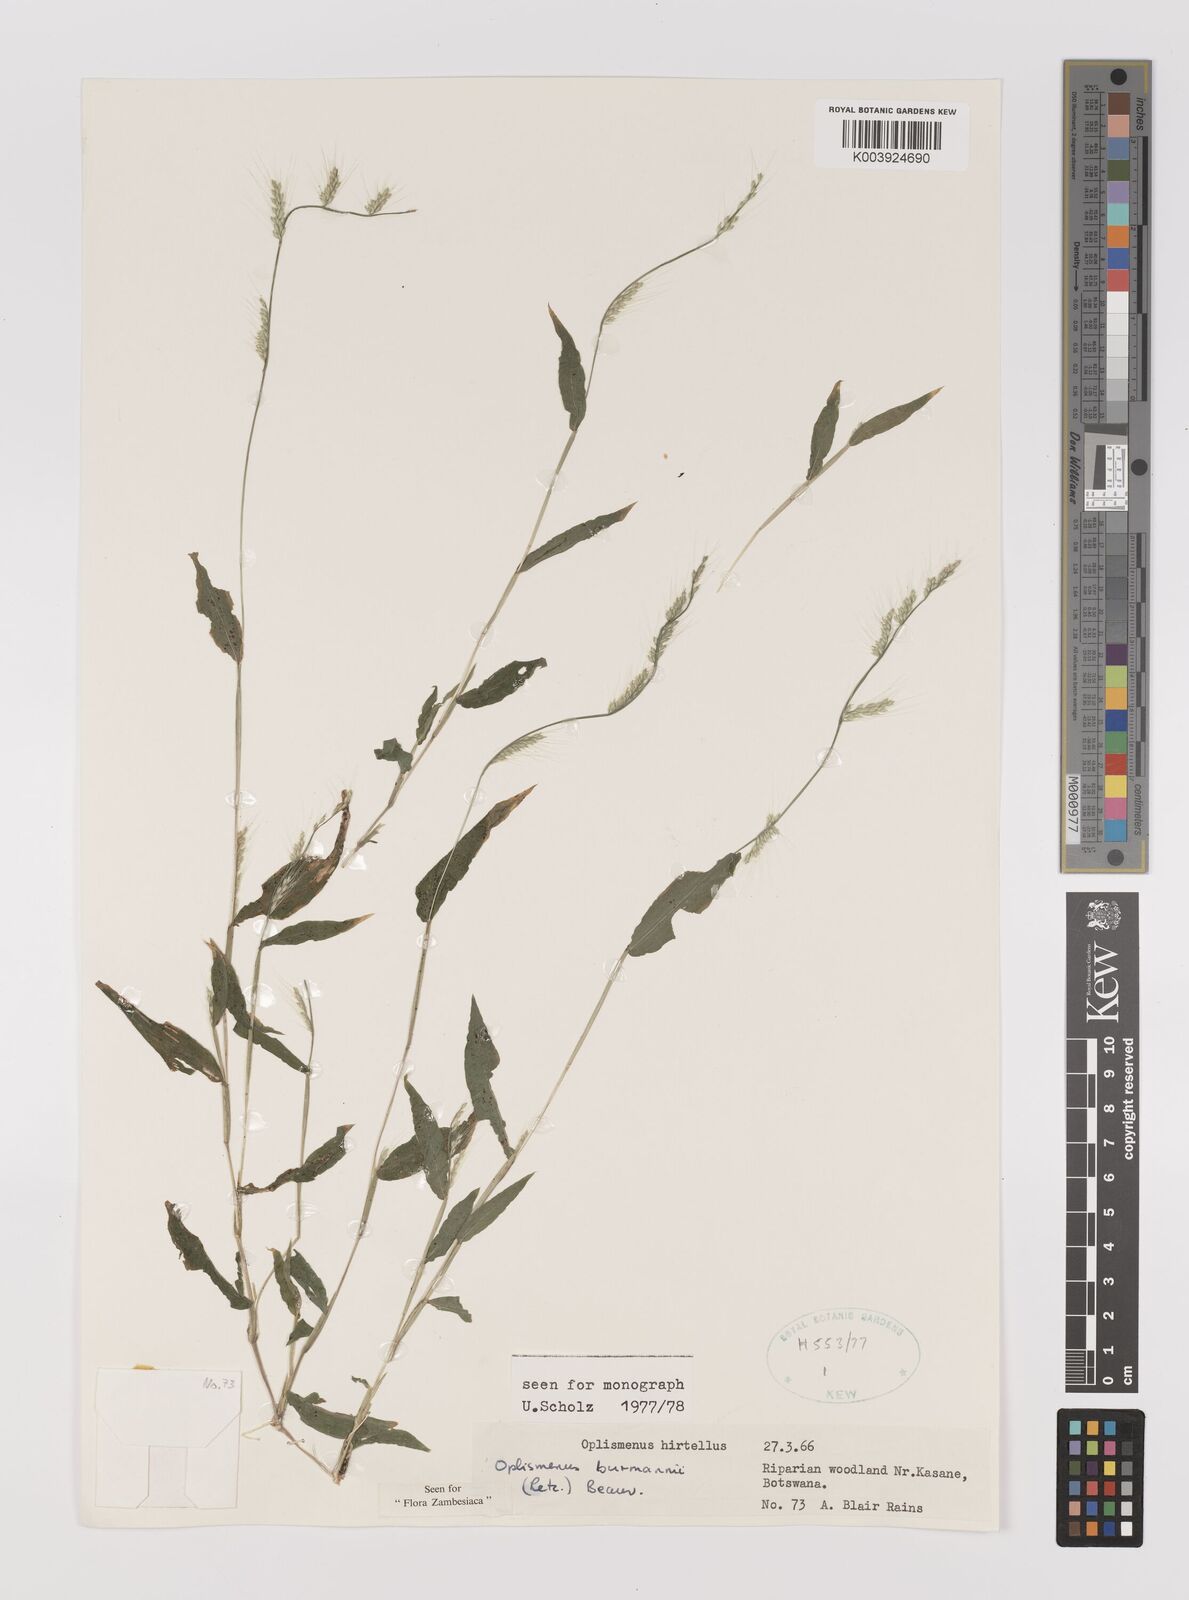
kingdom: Plantae
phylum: Tracheophyta
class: Liliopsida
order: Poales
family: Poaceae
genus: Oplismenus
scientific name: Oplismenus burmanni
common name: Burmann's basketgrass
